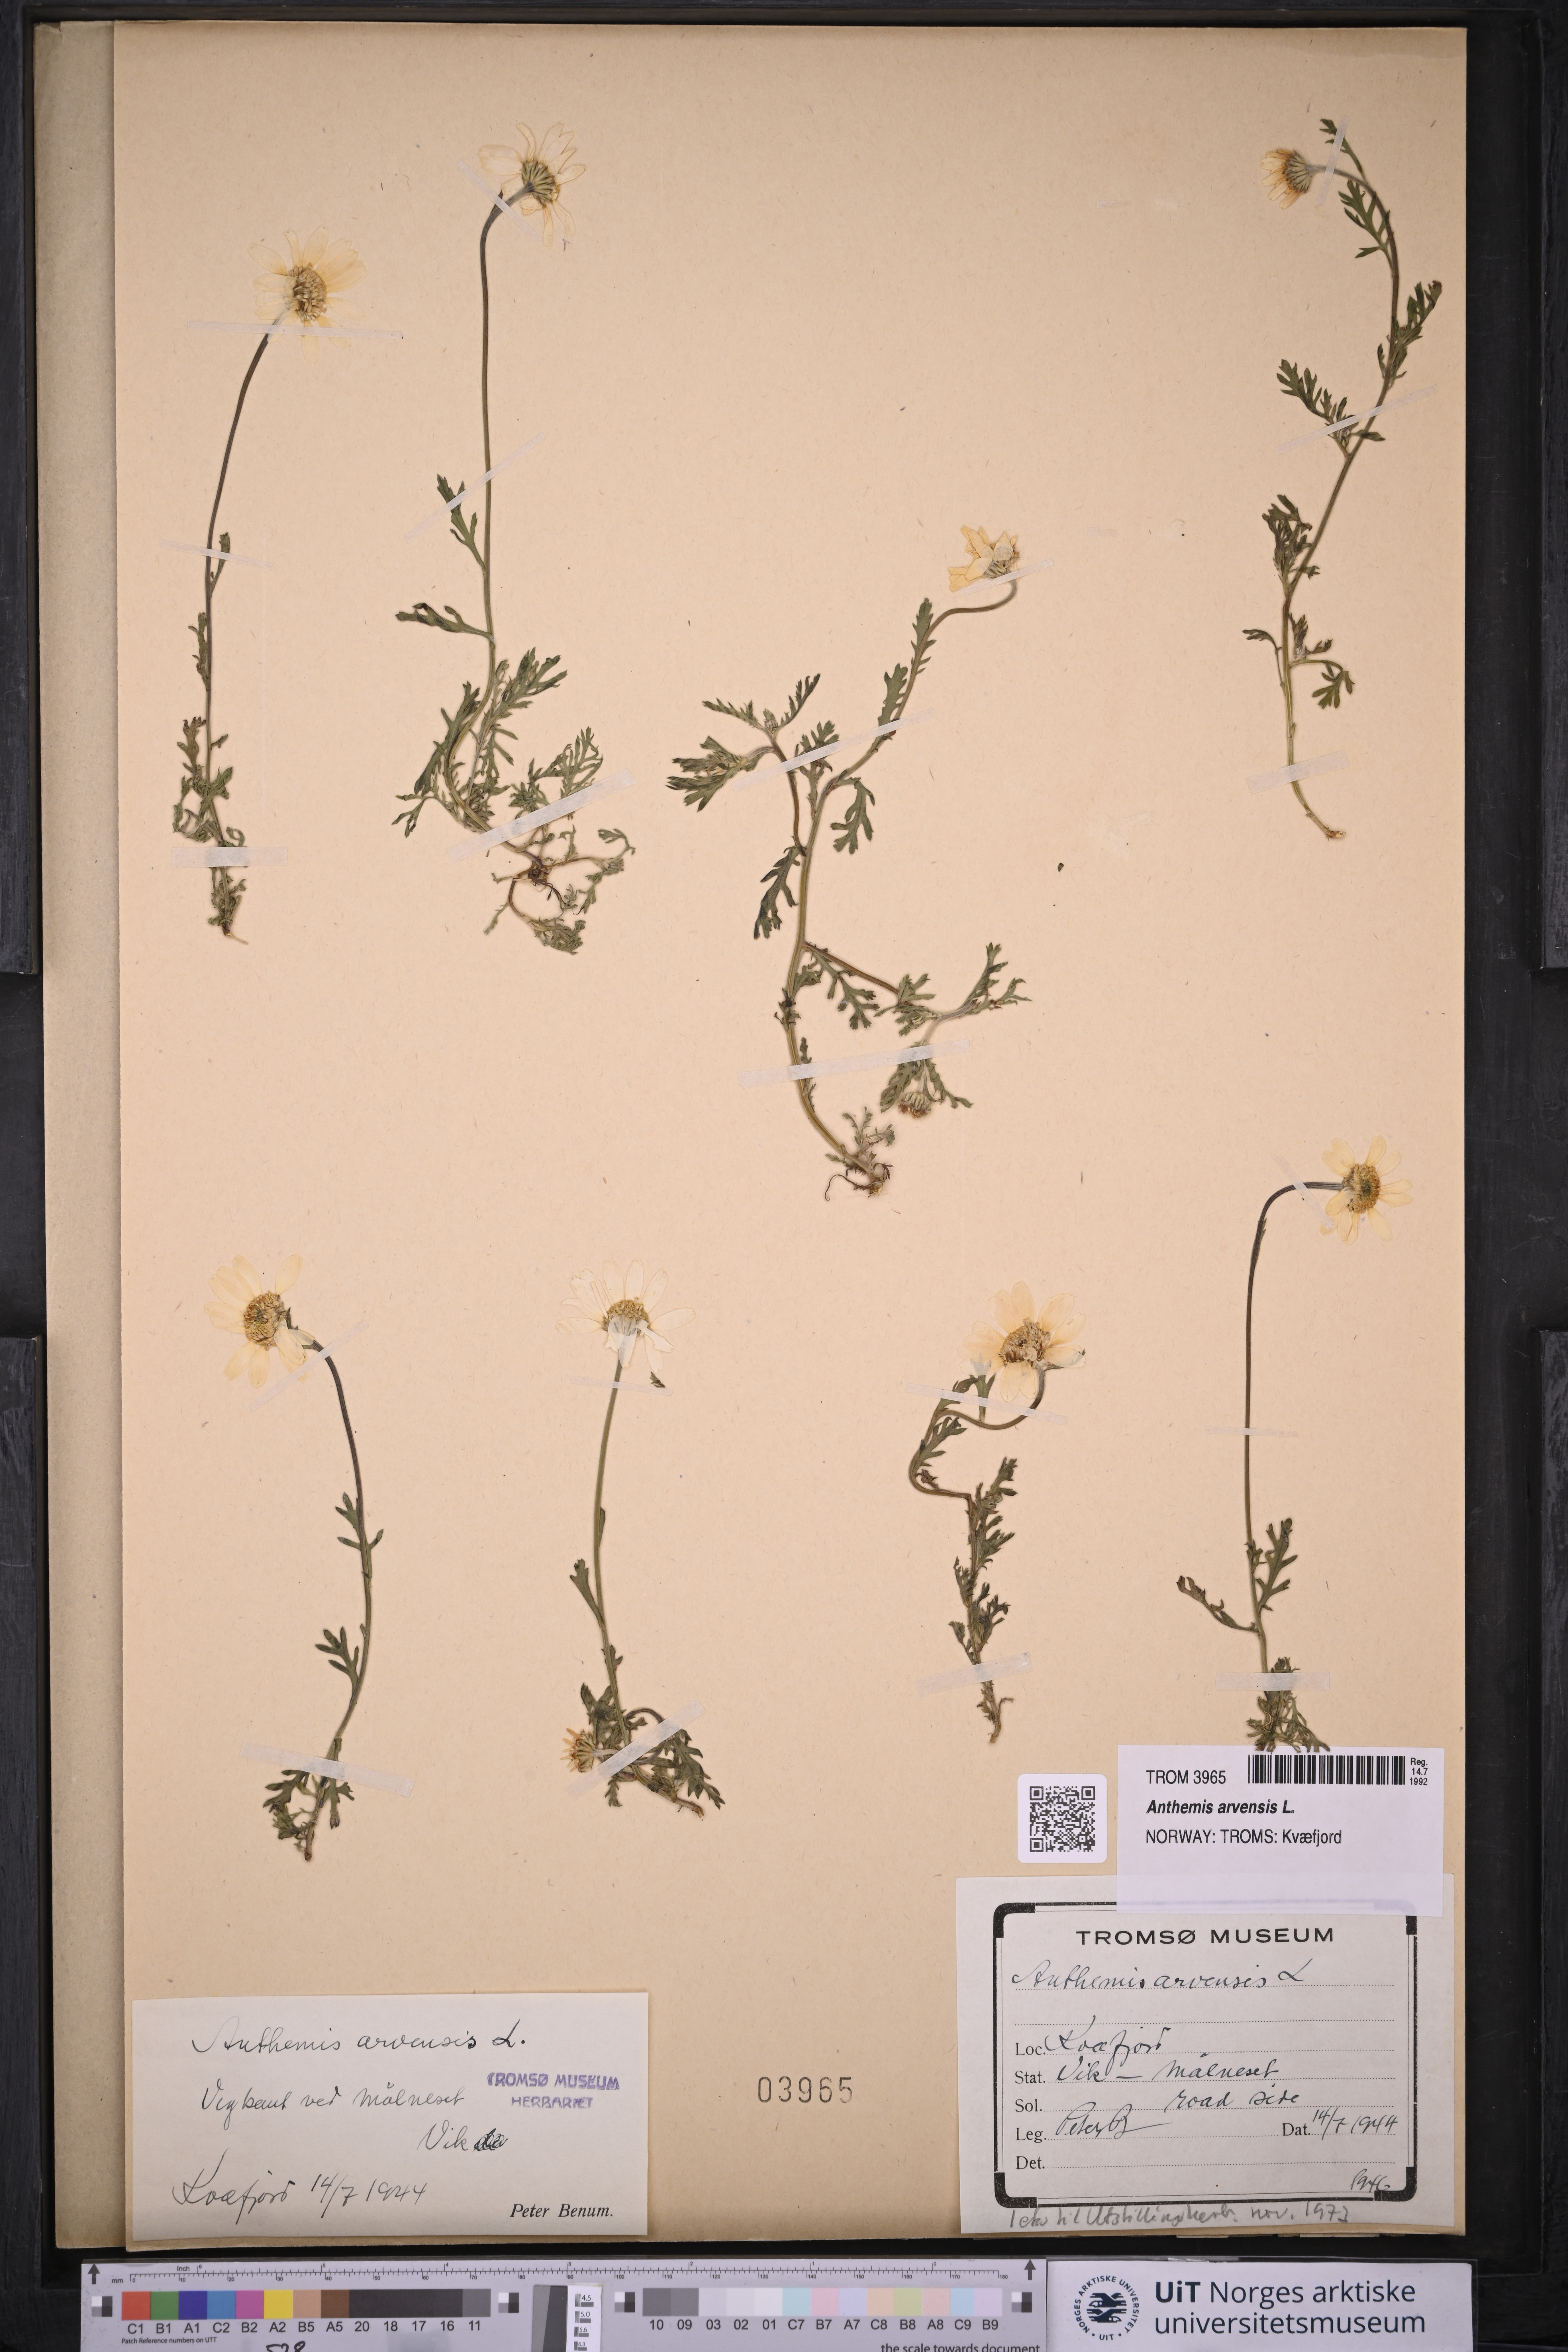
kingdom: Plantae
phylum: Tracheophyta
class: Magnoliopsida
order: Asterales
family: Asteraceae
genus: Anthemis
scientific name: Anthemis arvensis
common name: Corn chamomile
